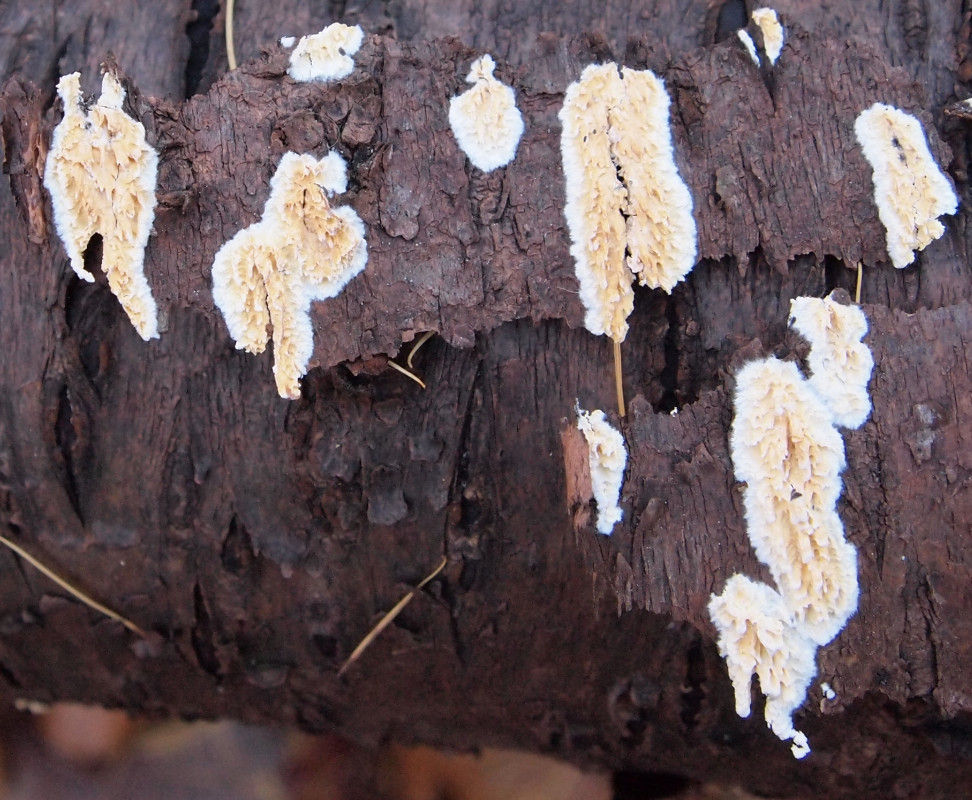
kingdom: Fungi
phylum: Basidiomycota
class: Agaricomycetes
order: Hymenochaetales
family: Schizoporaceae
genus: Xylodon
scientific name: Xylodon radula
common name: grovtandet kalkskind
